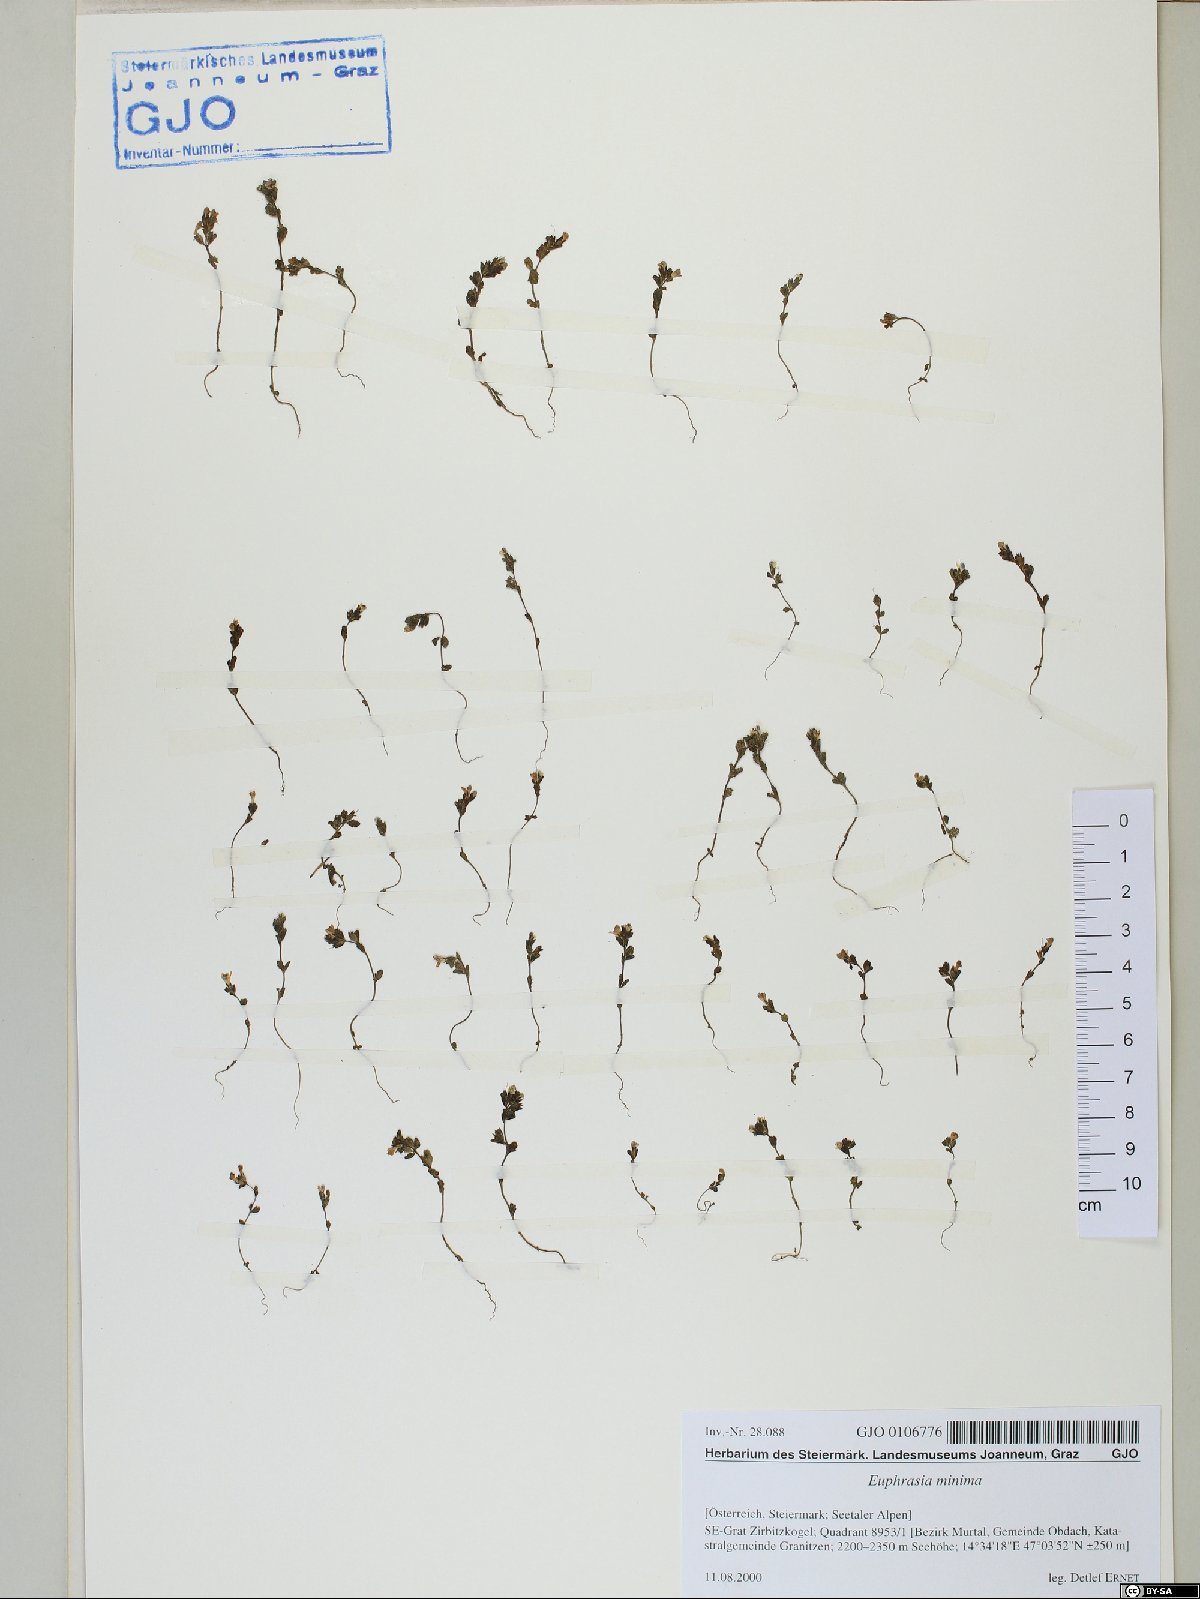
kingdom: Plantae
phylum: Tracheophyta
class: Magnoliopsida
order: Lamiales
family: Orobanchaceae
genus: Euphrasia
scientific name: Euphrasia minima
